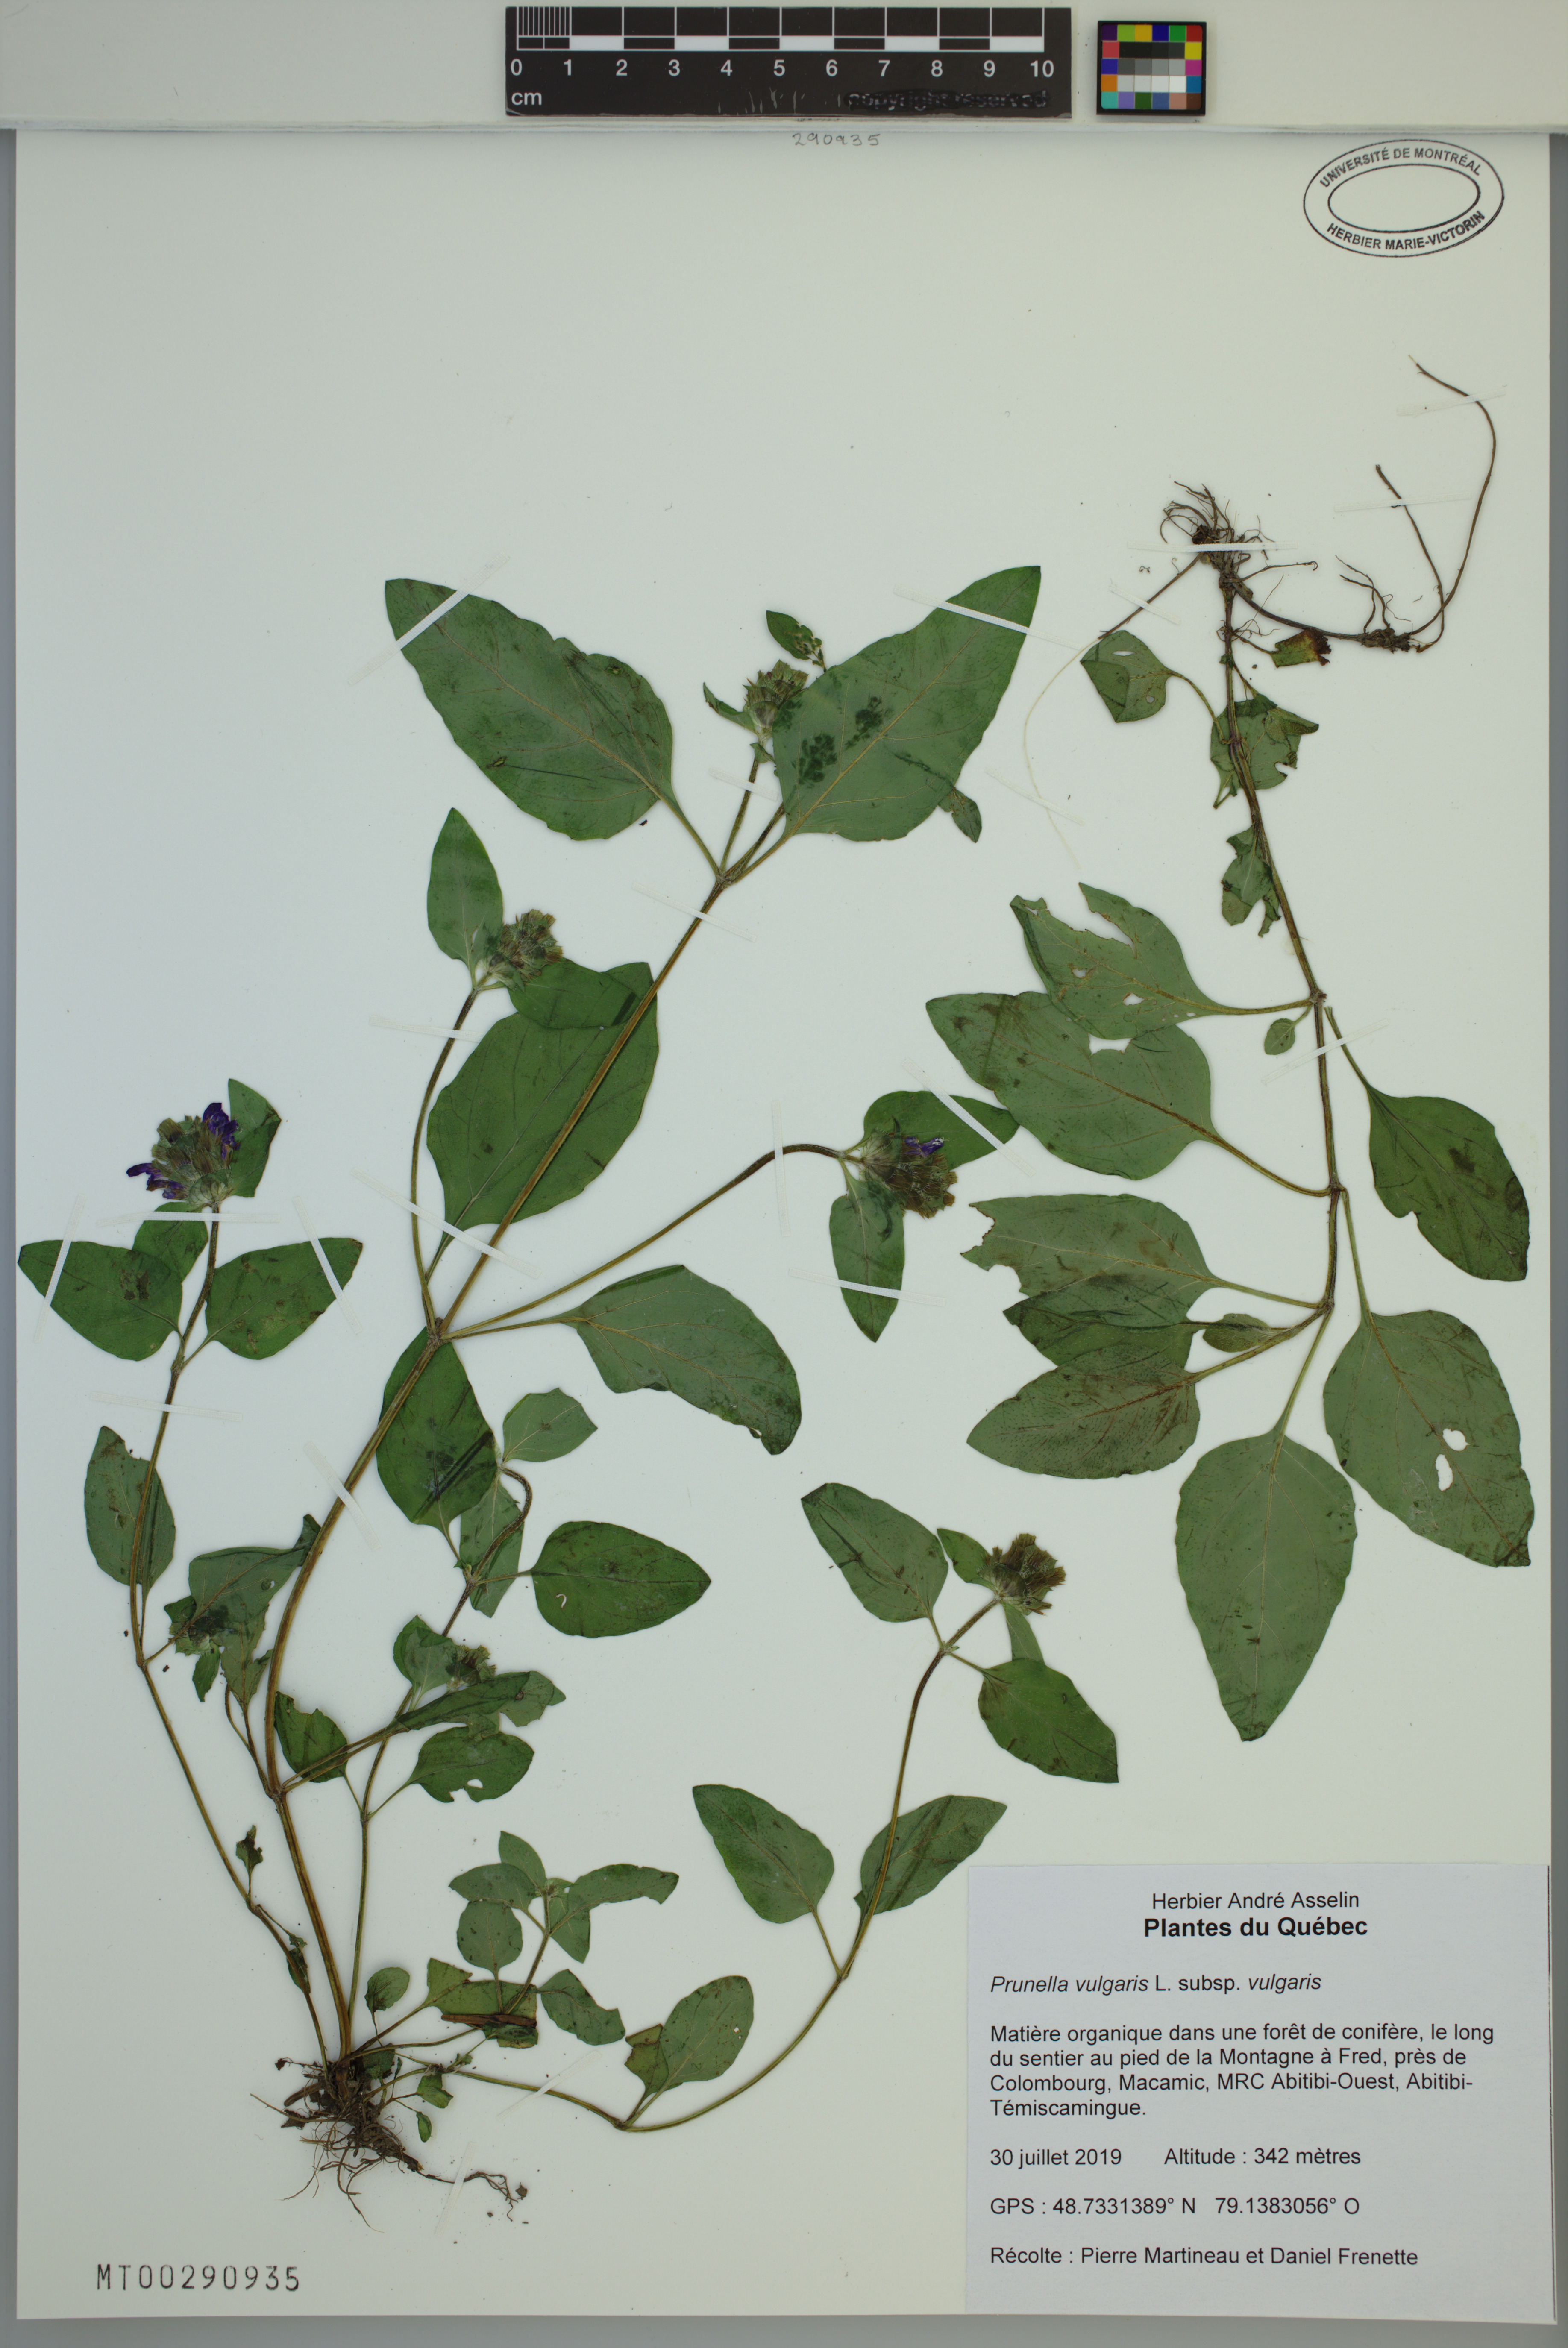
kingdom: Plantae
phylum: Tracheophyta
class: Magnoliopsida
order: Lamiales
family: Lamiaceae
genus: Prunella
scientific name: Prunella vulgaris
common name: Heal-all
